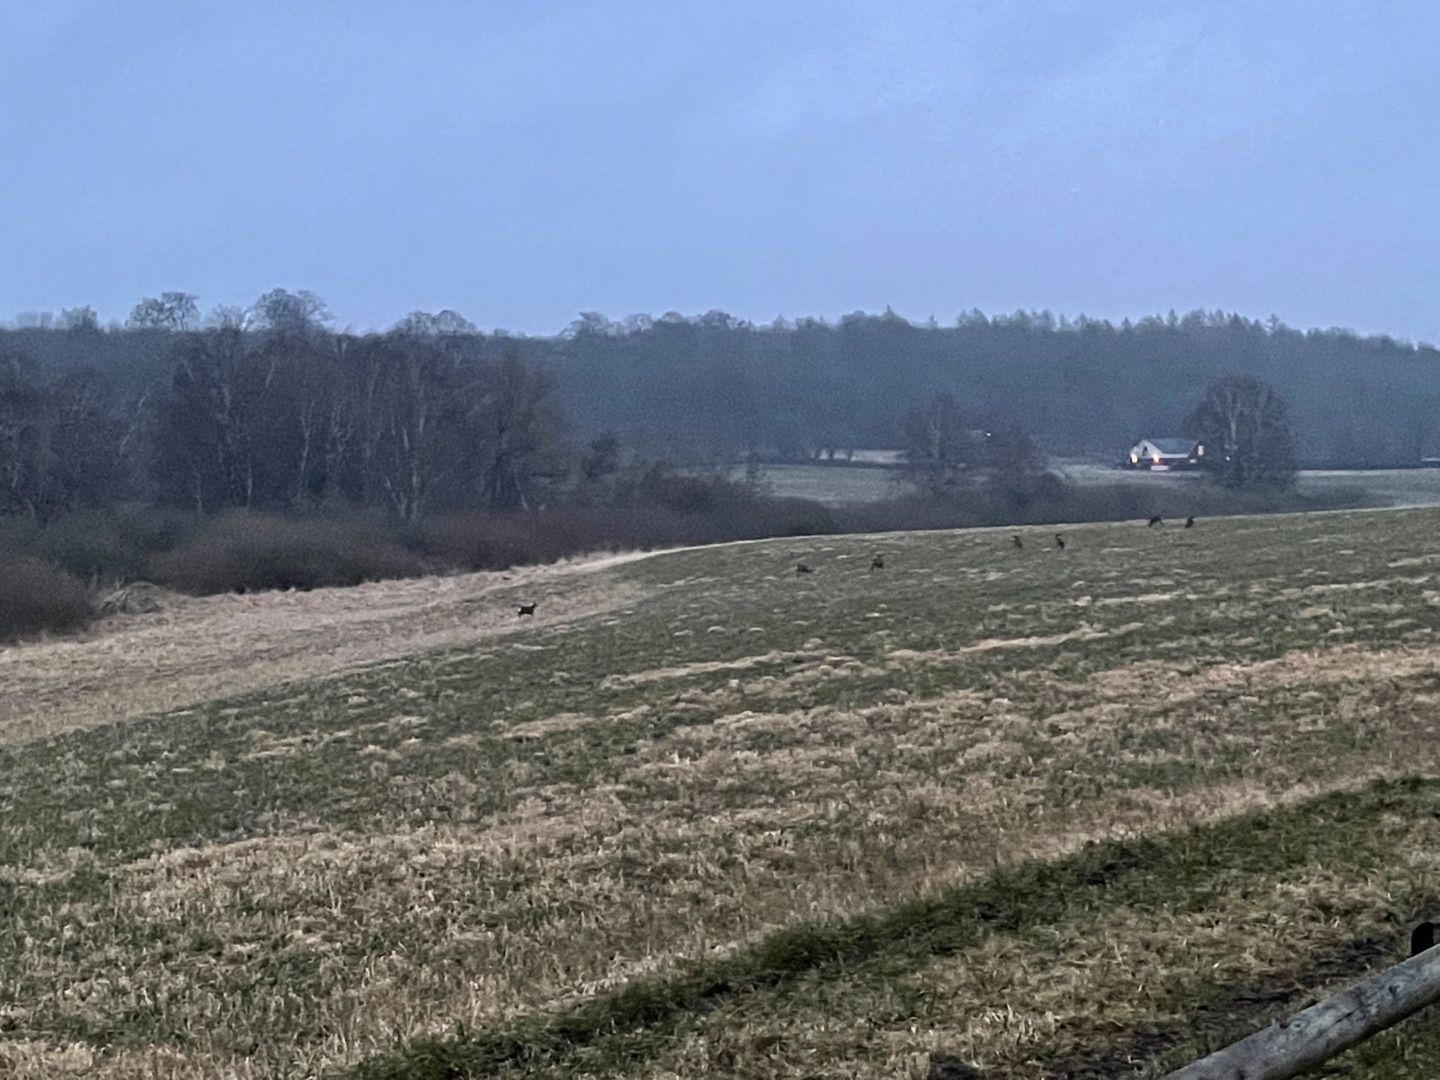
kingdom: Animalia
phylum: Chordata
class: Mammalia
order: Artiodactyla
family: Cervidae
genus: Capreolus
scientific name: Capreolus capreolus
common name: Rådyr
